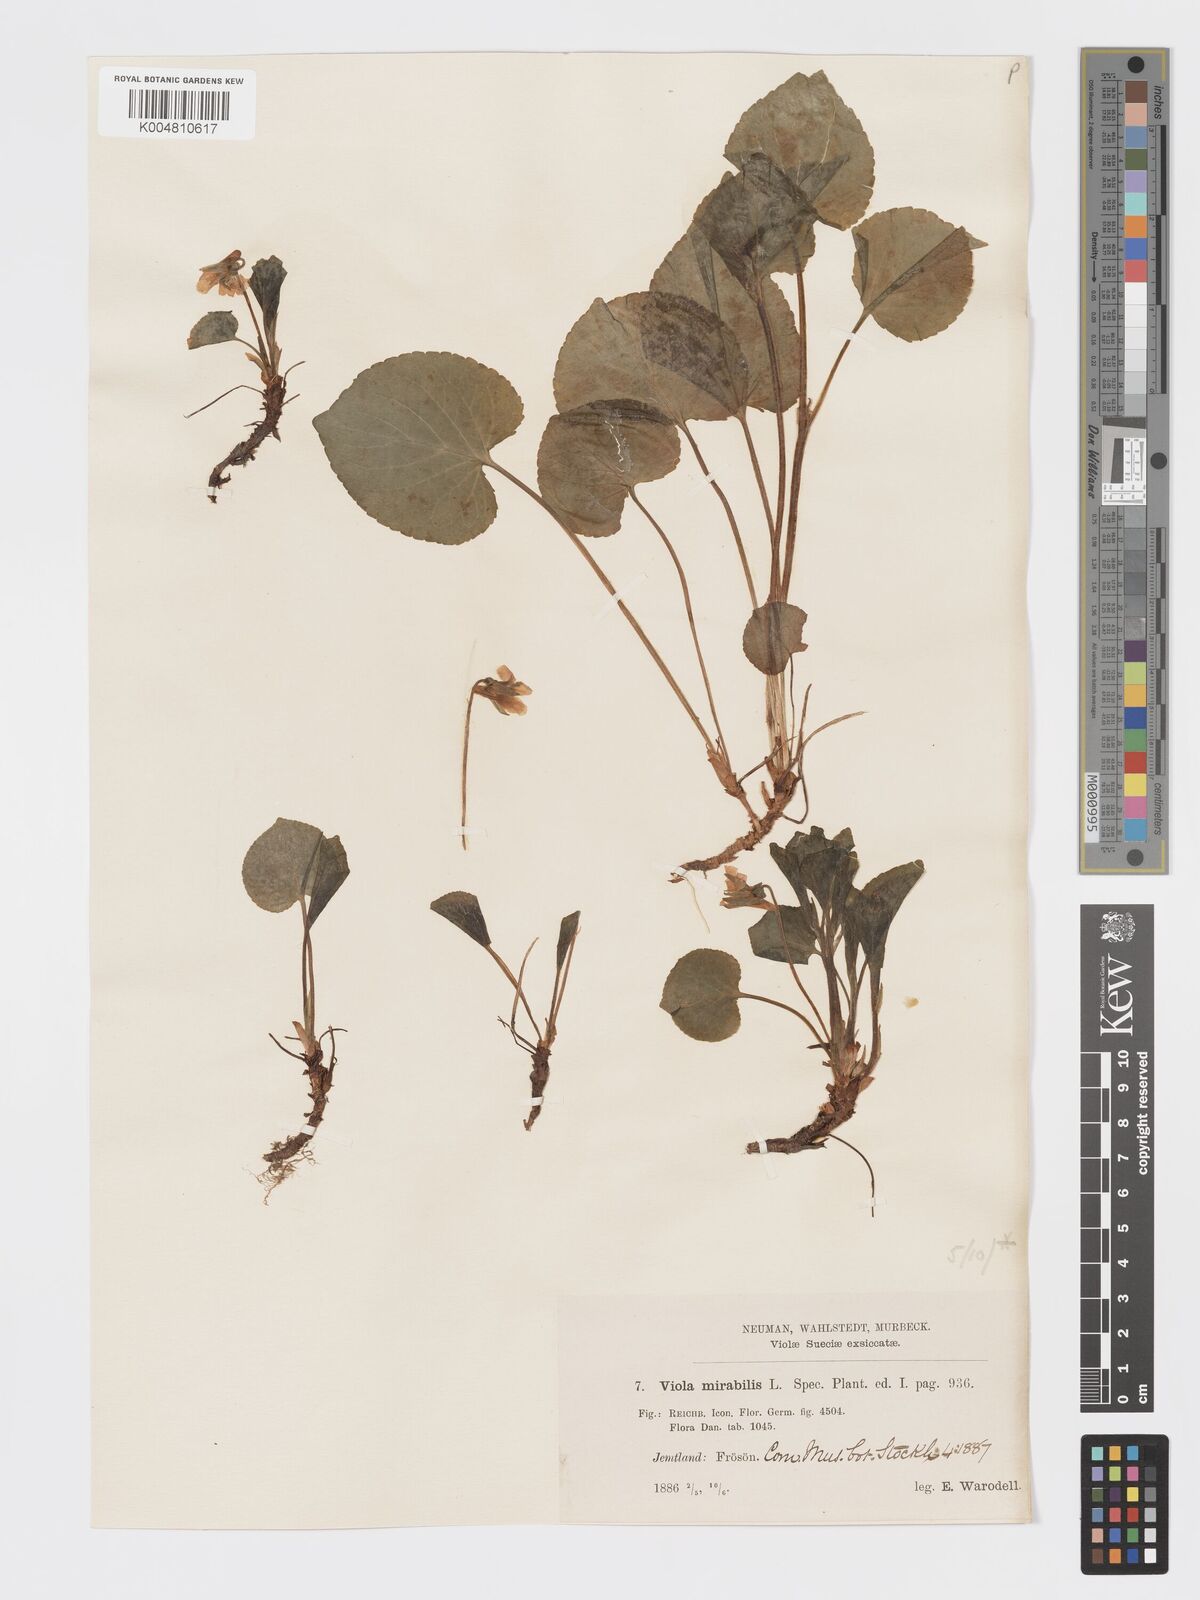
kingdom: Plantae
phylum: Tracheophyta
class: Magnoliopsida
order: Malpighiales
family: Violaceae
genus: Viola
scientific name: Viola mirabilis
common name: Wonder violet
